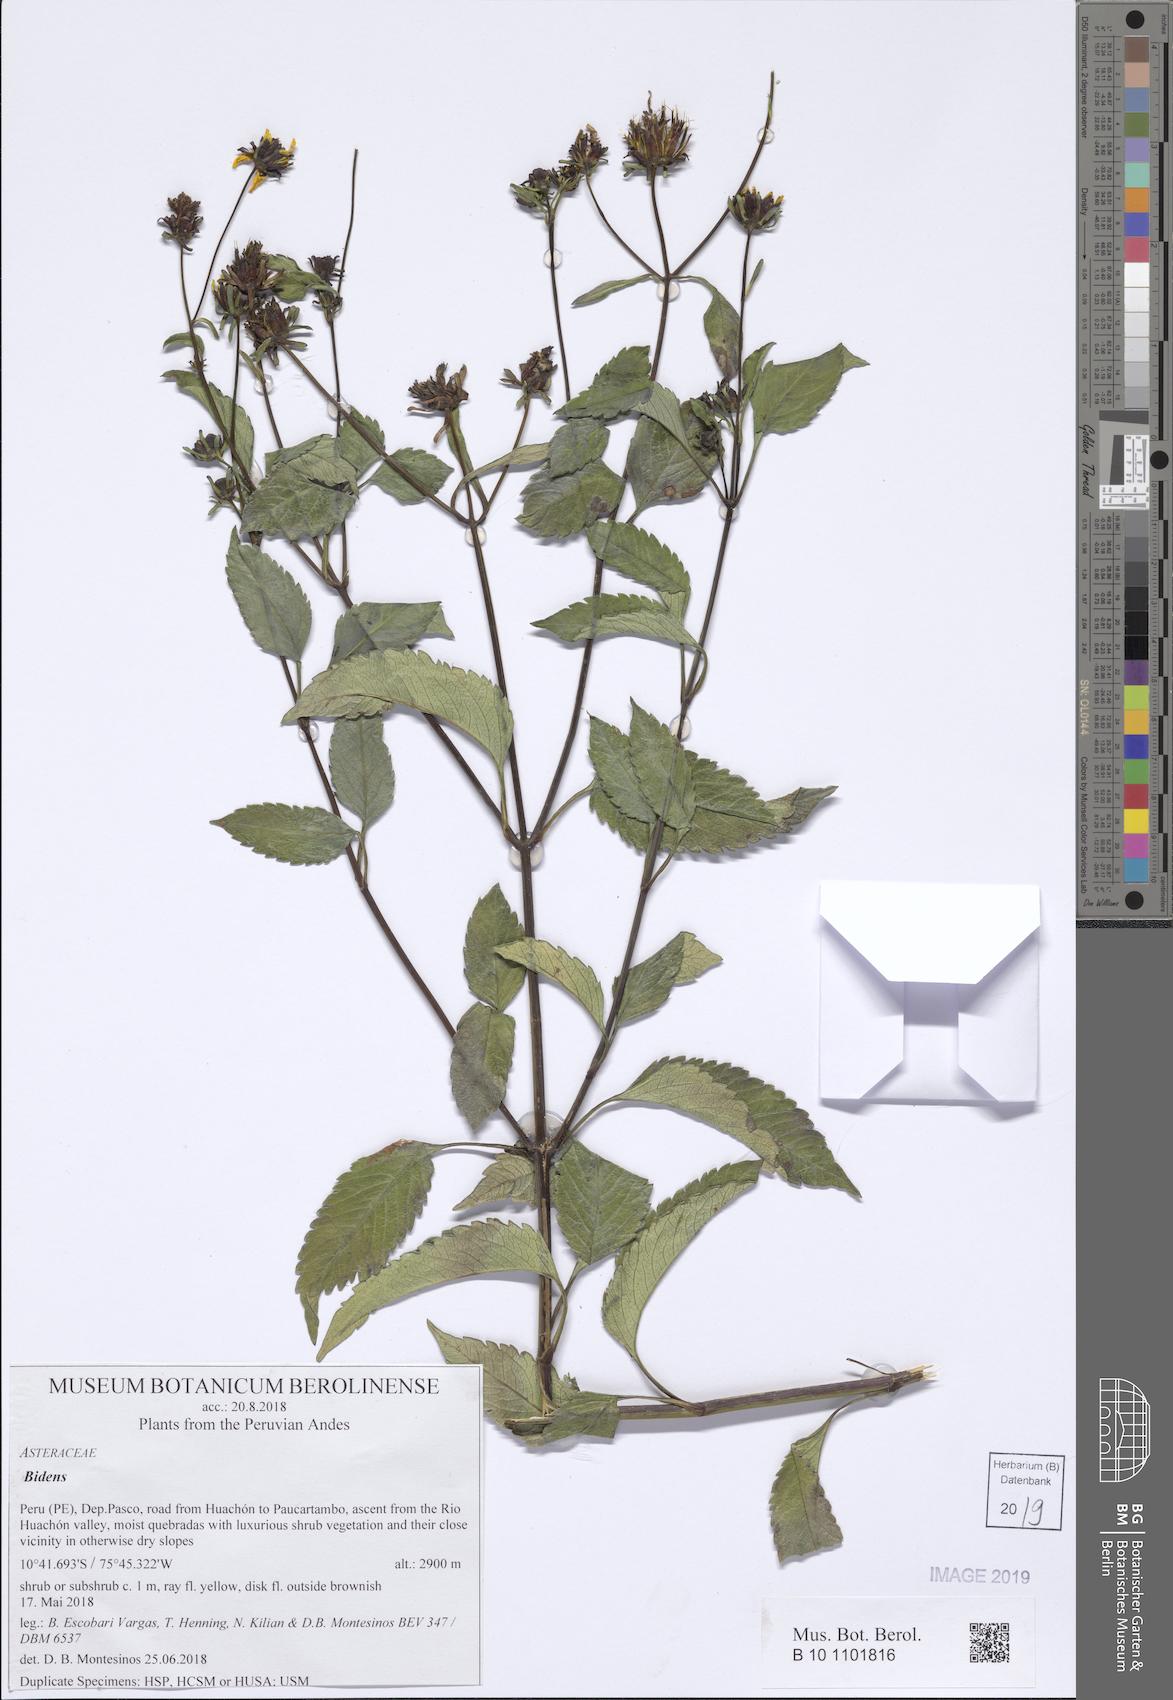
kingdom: Plantae
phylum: Tracheophyta
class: Magnoliopsida
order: Asterales
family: Asteraceae
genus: Bidens
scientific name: Bidens
